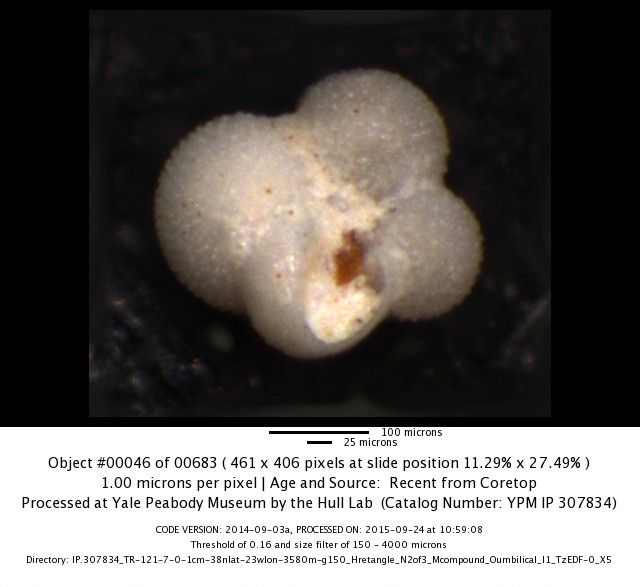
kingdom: Chromista
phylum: Foraminifera
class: Globothalamea
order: Rotaliida
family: Globigerinidae
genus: Globigerinella
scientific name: Globigerinella calida
